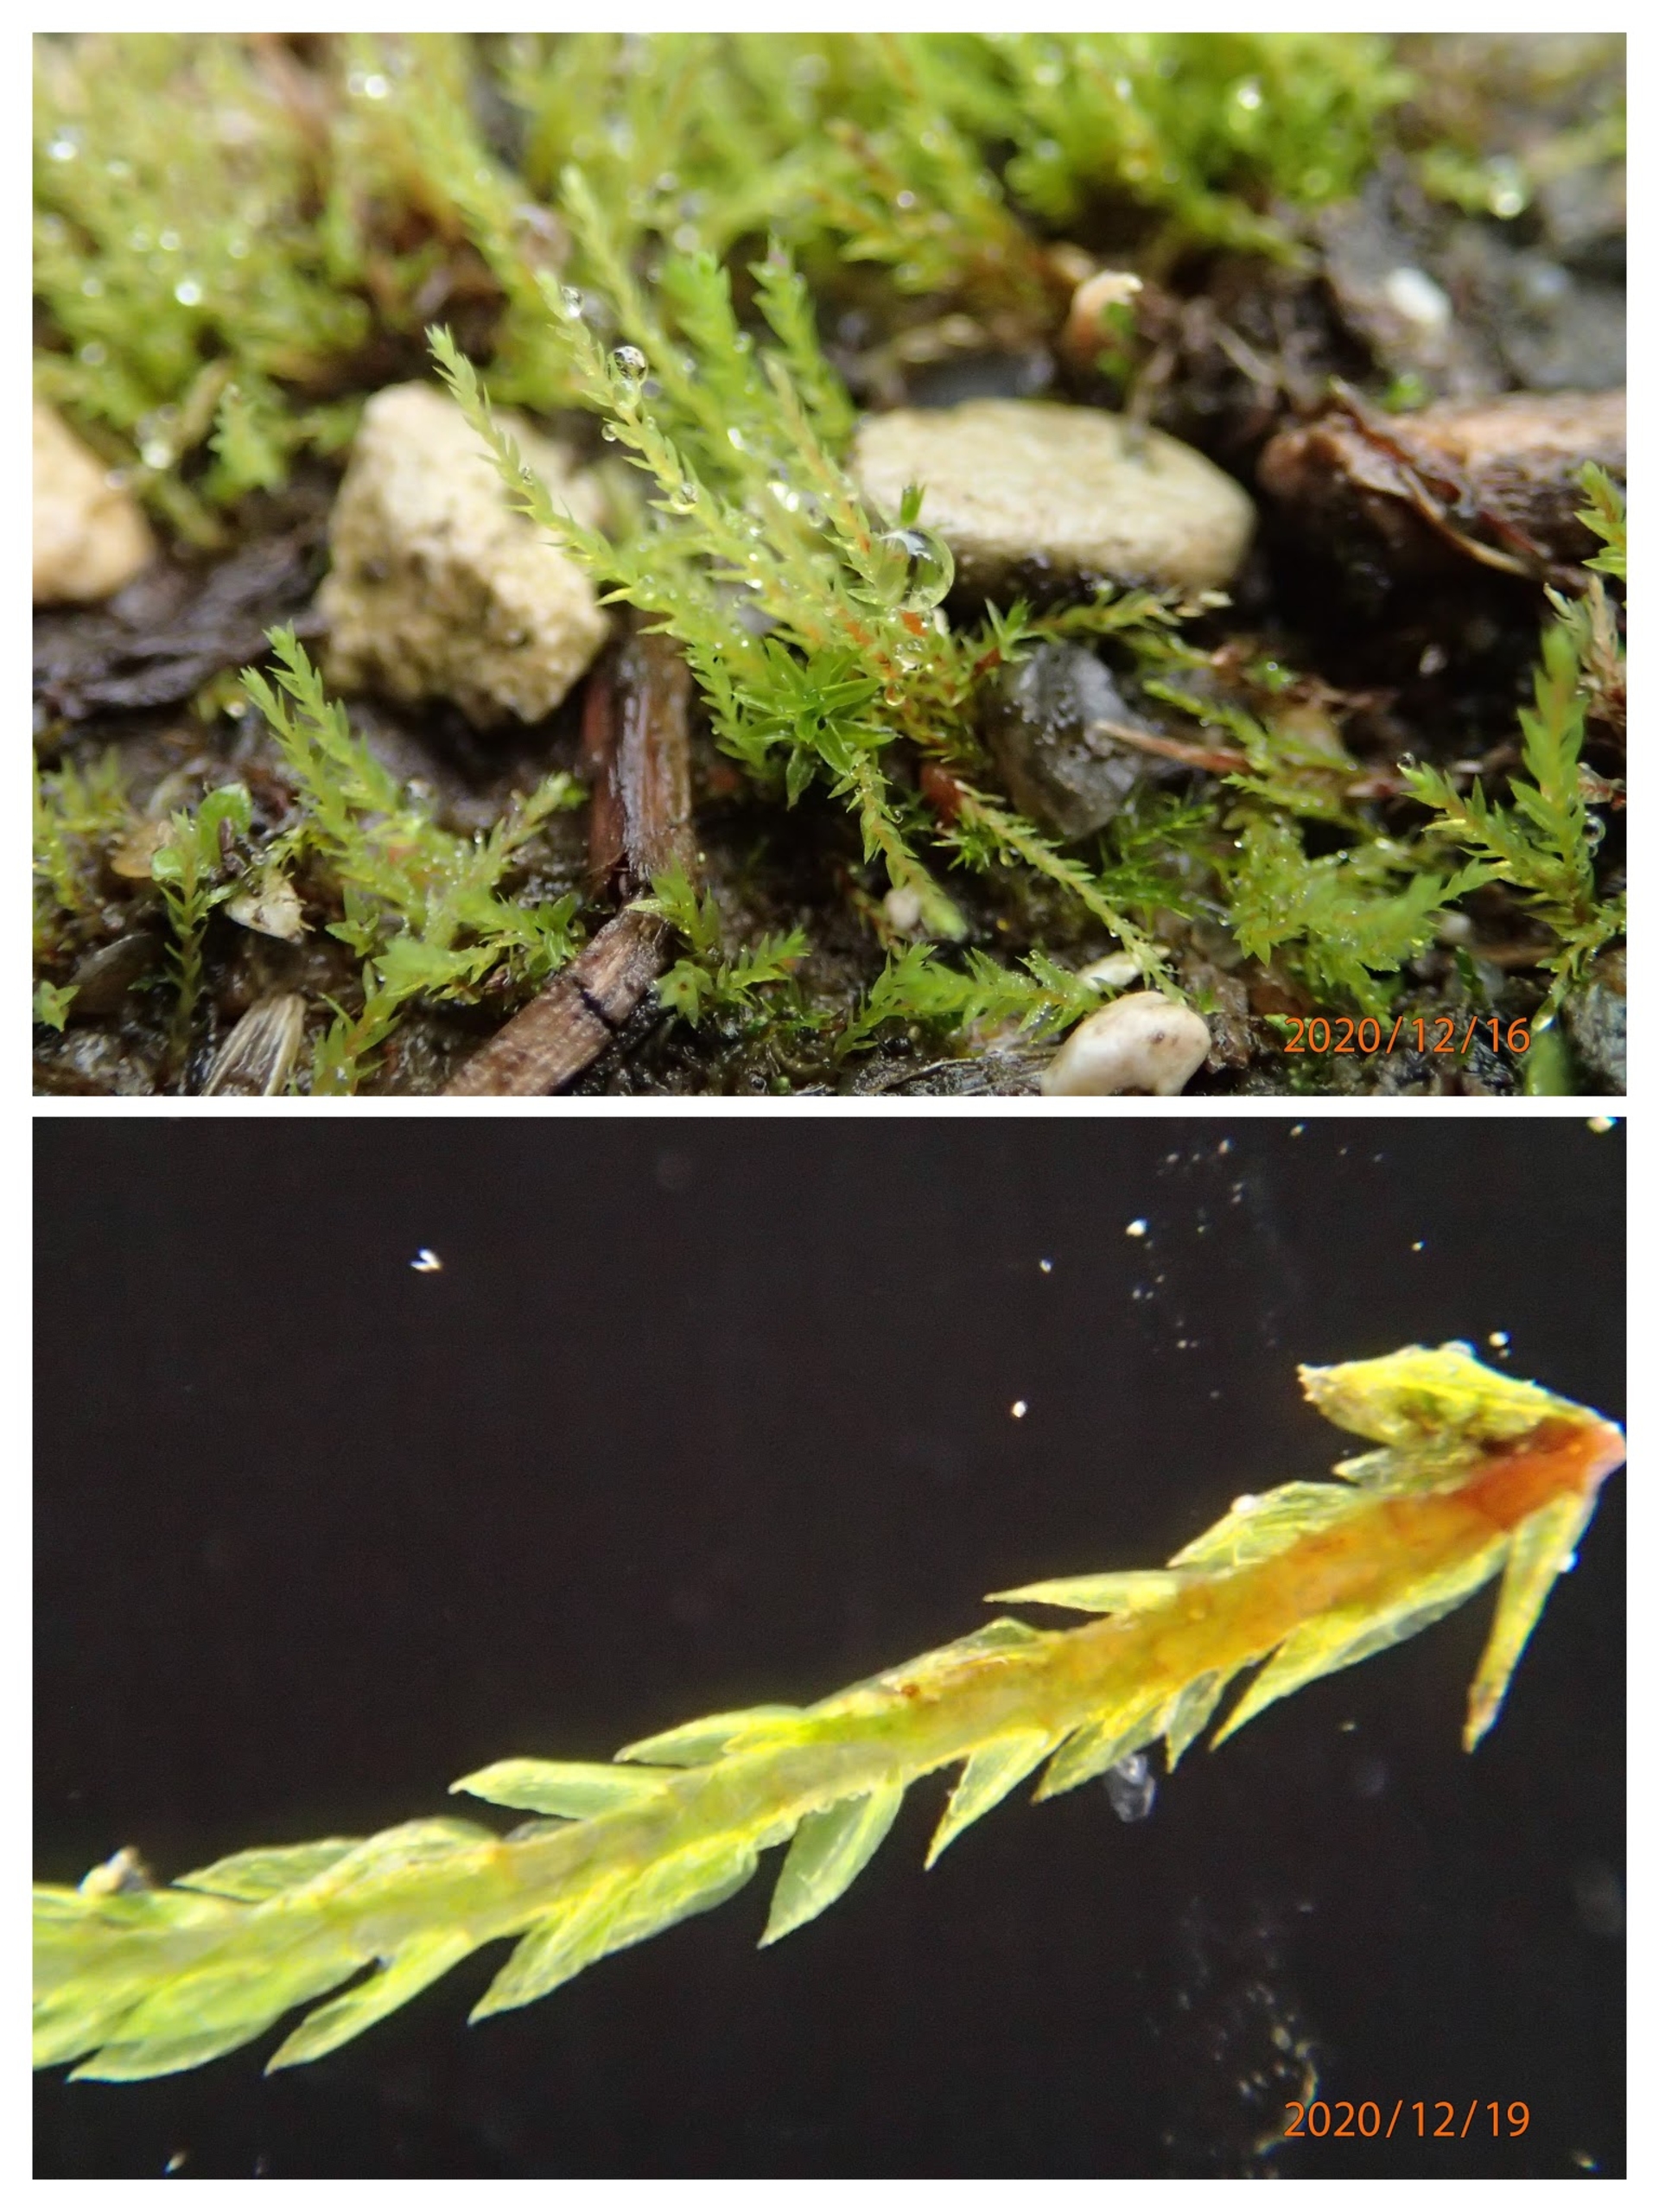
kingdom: Plantae
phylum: Bryophyta
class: Bryopsida
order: Bryales
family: Mniaceae
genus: Pohlia
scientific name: Pohlia wahlenbergii
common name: Lysegrøn voksmos
